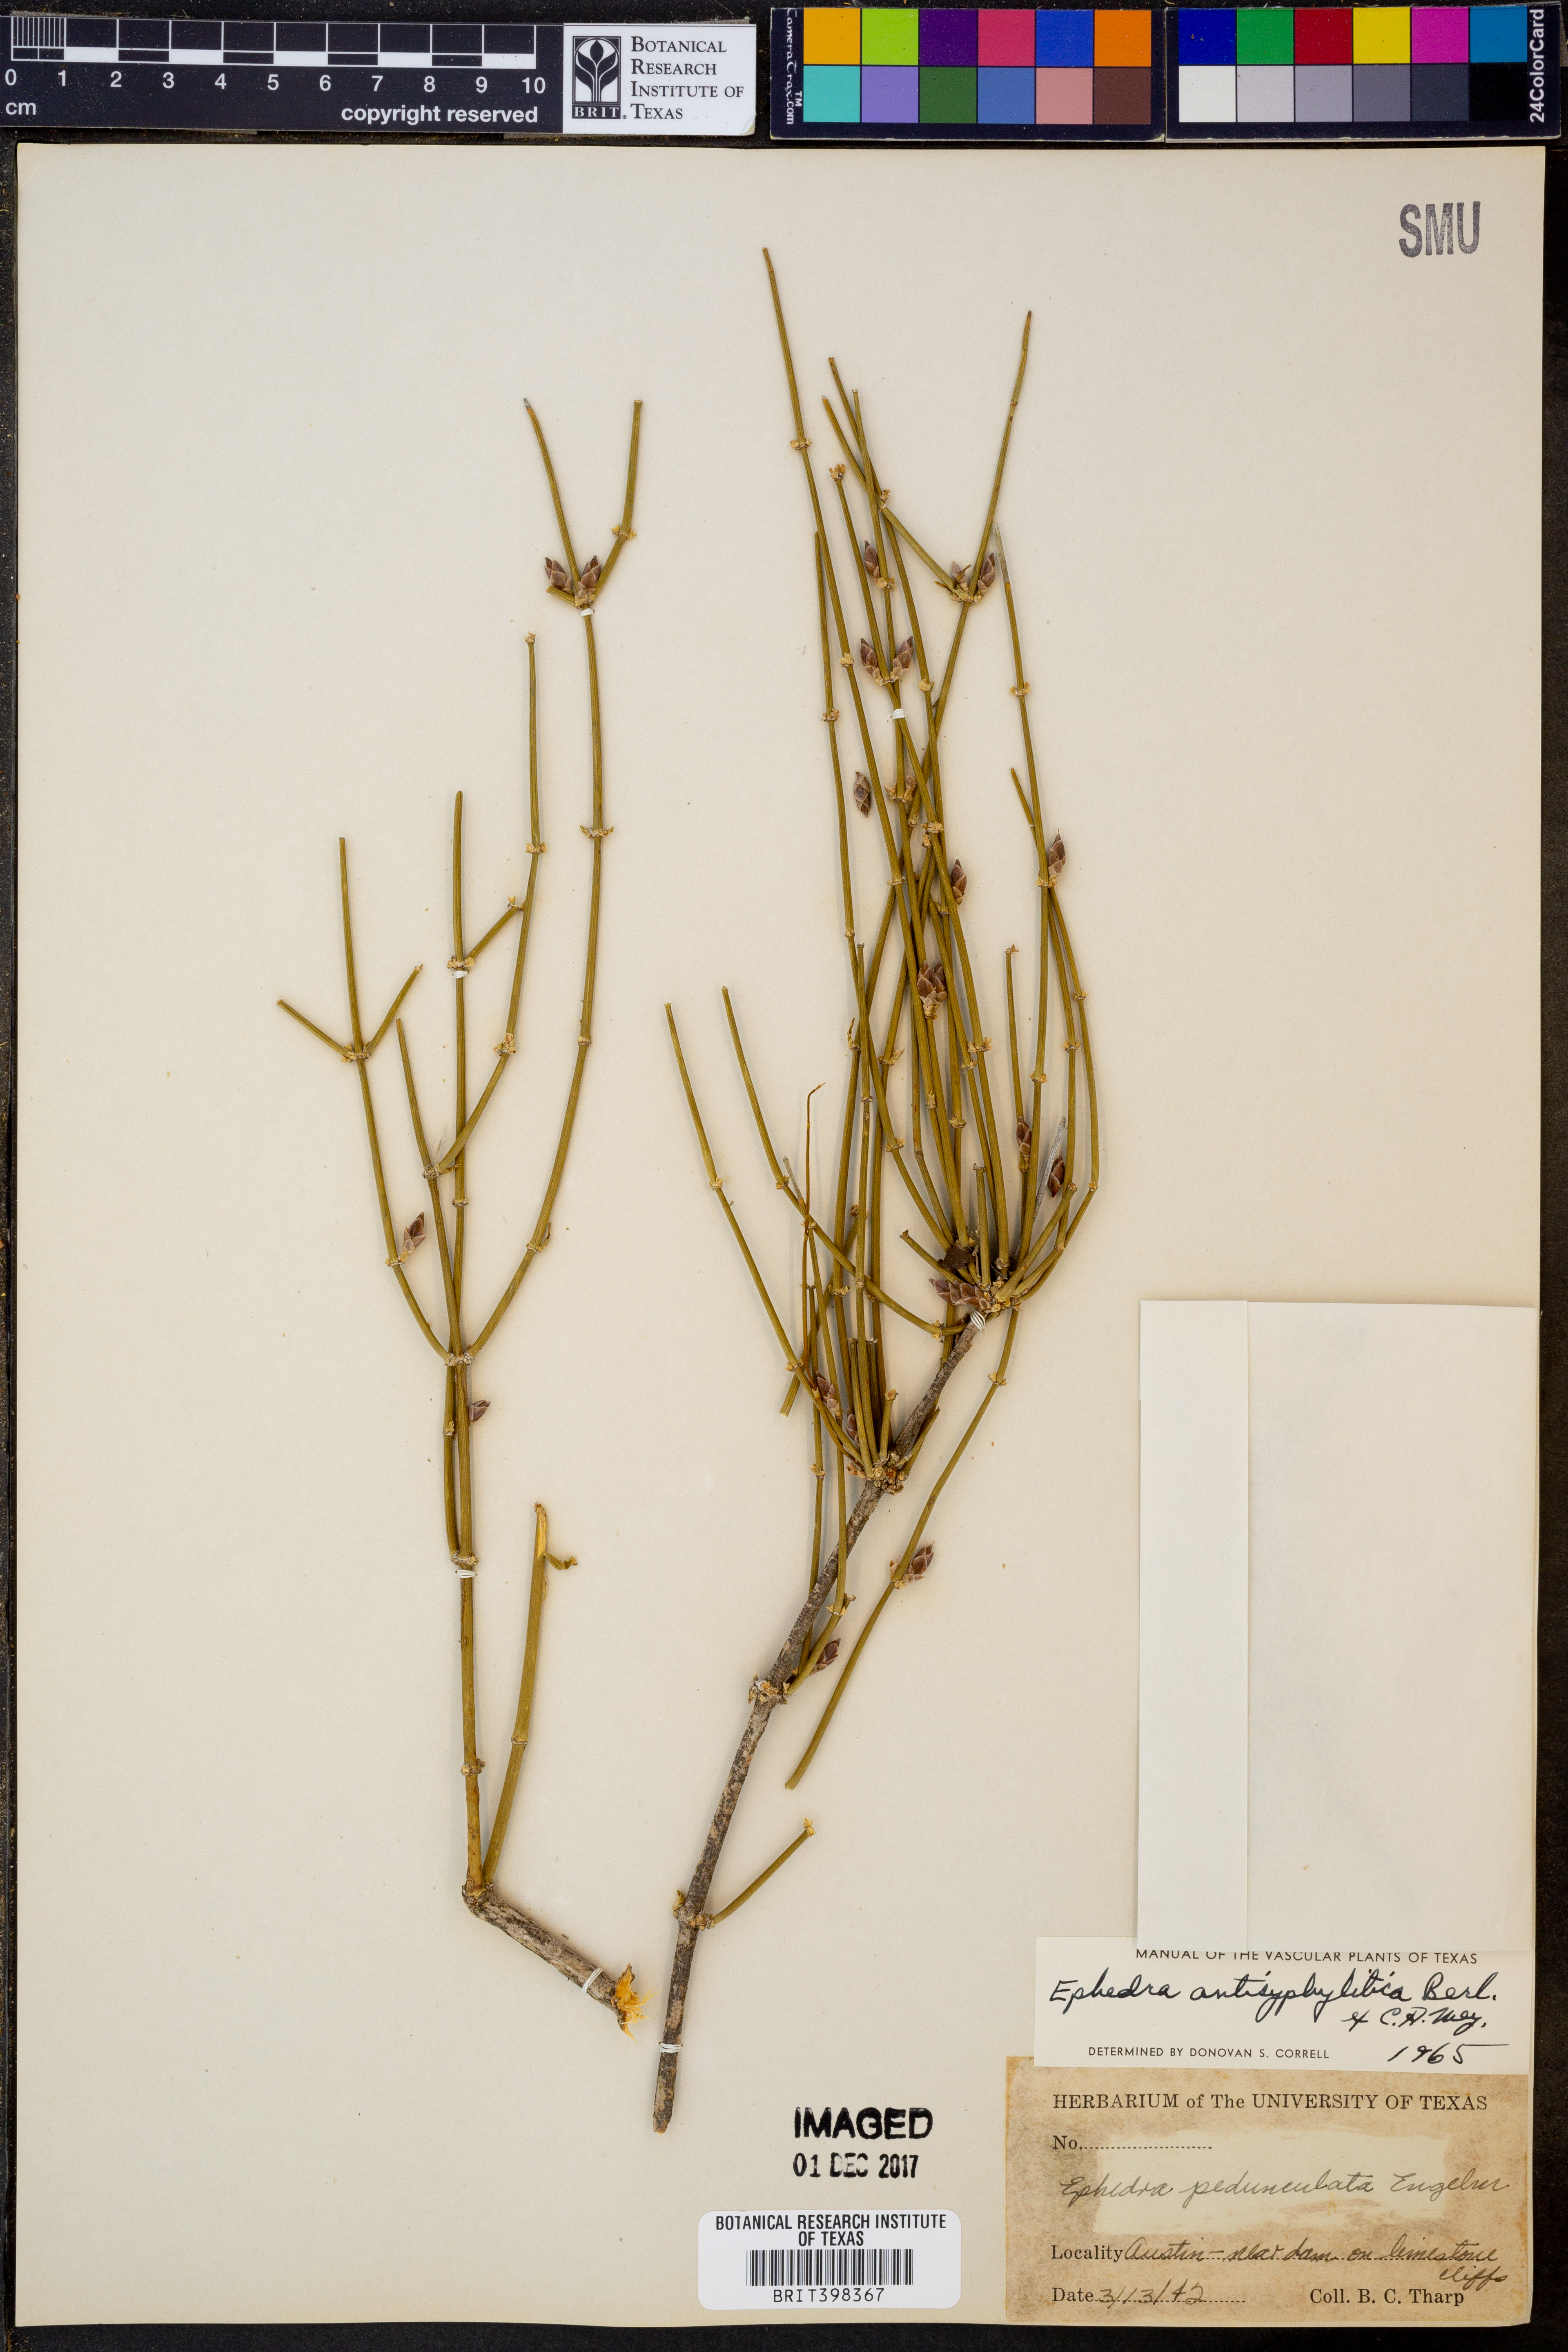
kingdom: Plantae
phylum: Tracheophyta
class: Gnetopsida
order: Ephedrales
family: Ephedraceae
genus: Ephedra
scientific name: Ephedra nevadensis
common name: Gray ephedra
